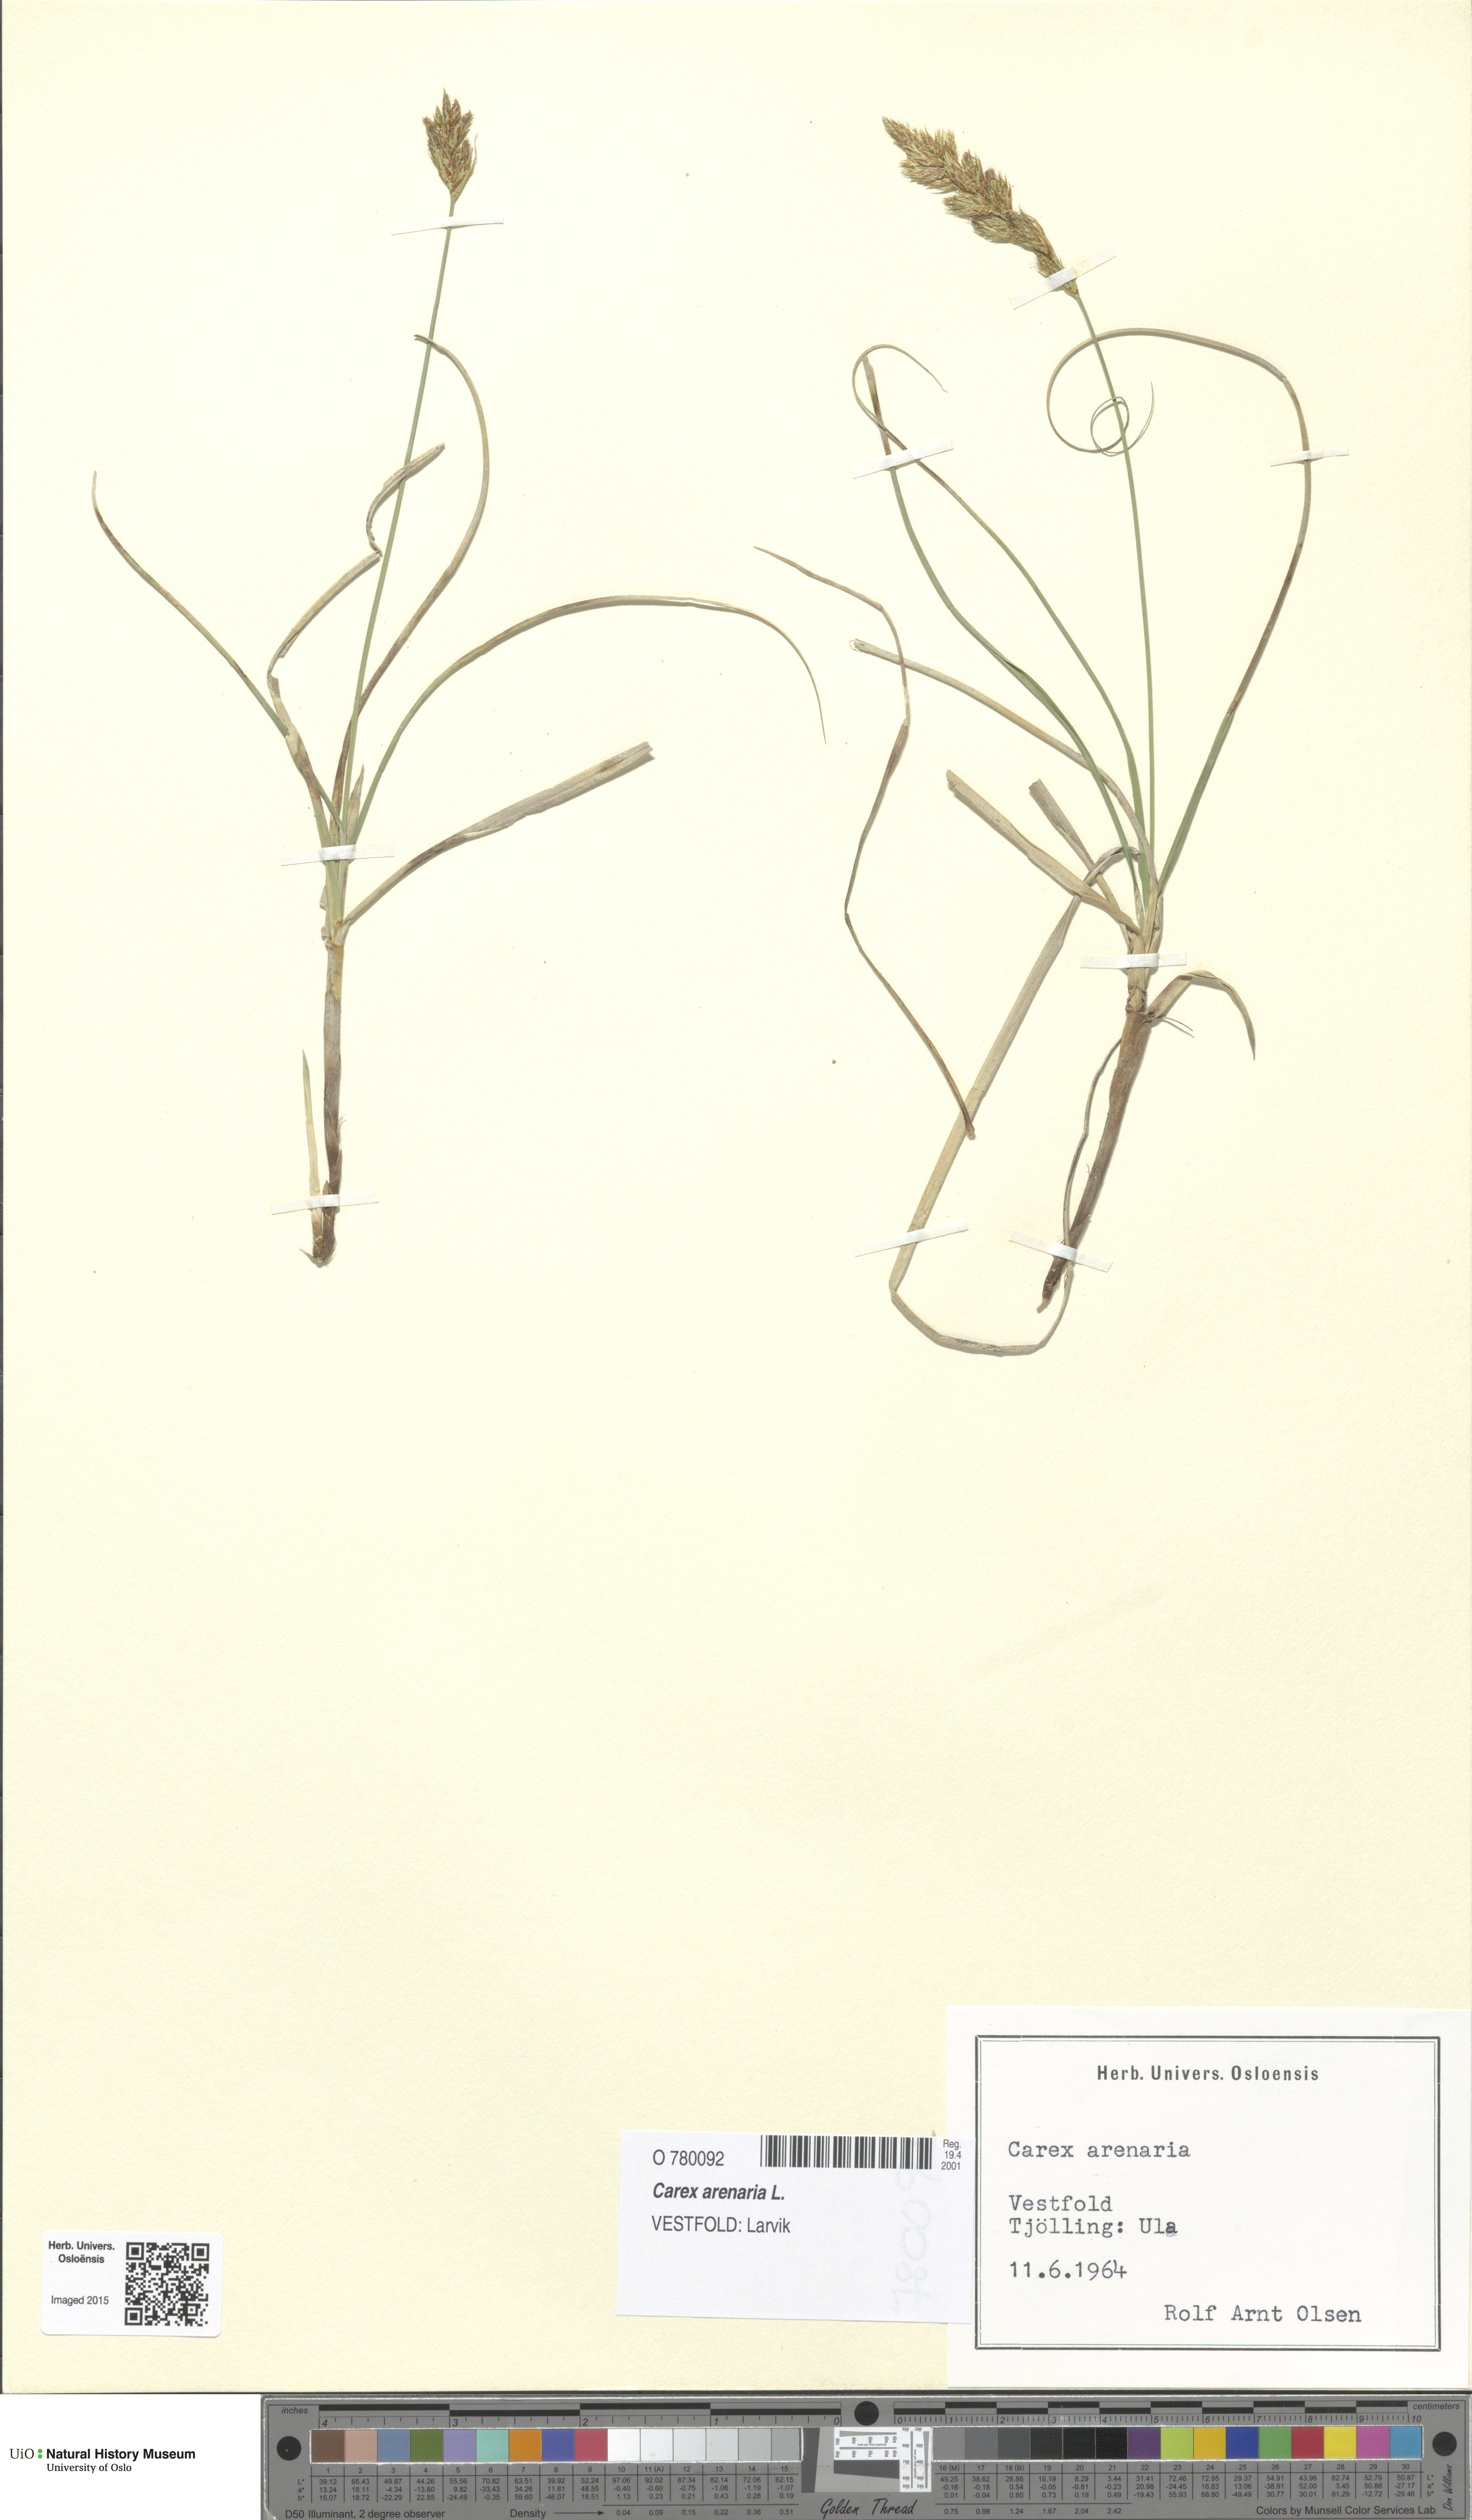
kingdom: Plantae
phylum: Tracheophyta
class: Liliopsida
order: Poales
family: Cyperaceae
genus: Carex
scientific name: Carex arenaria
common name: Sand sedge
